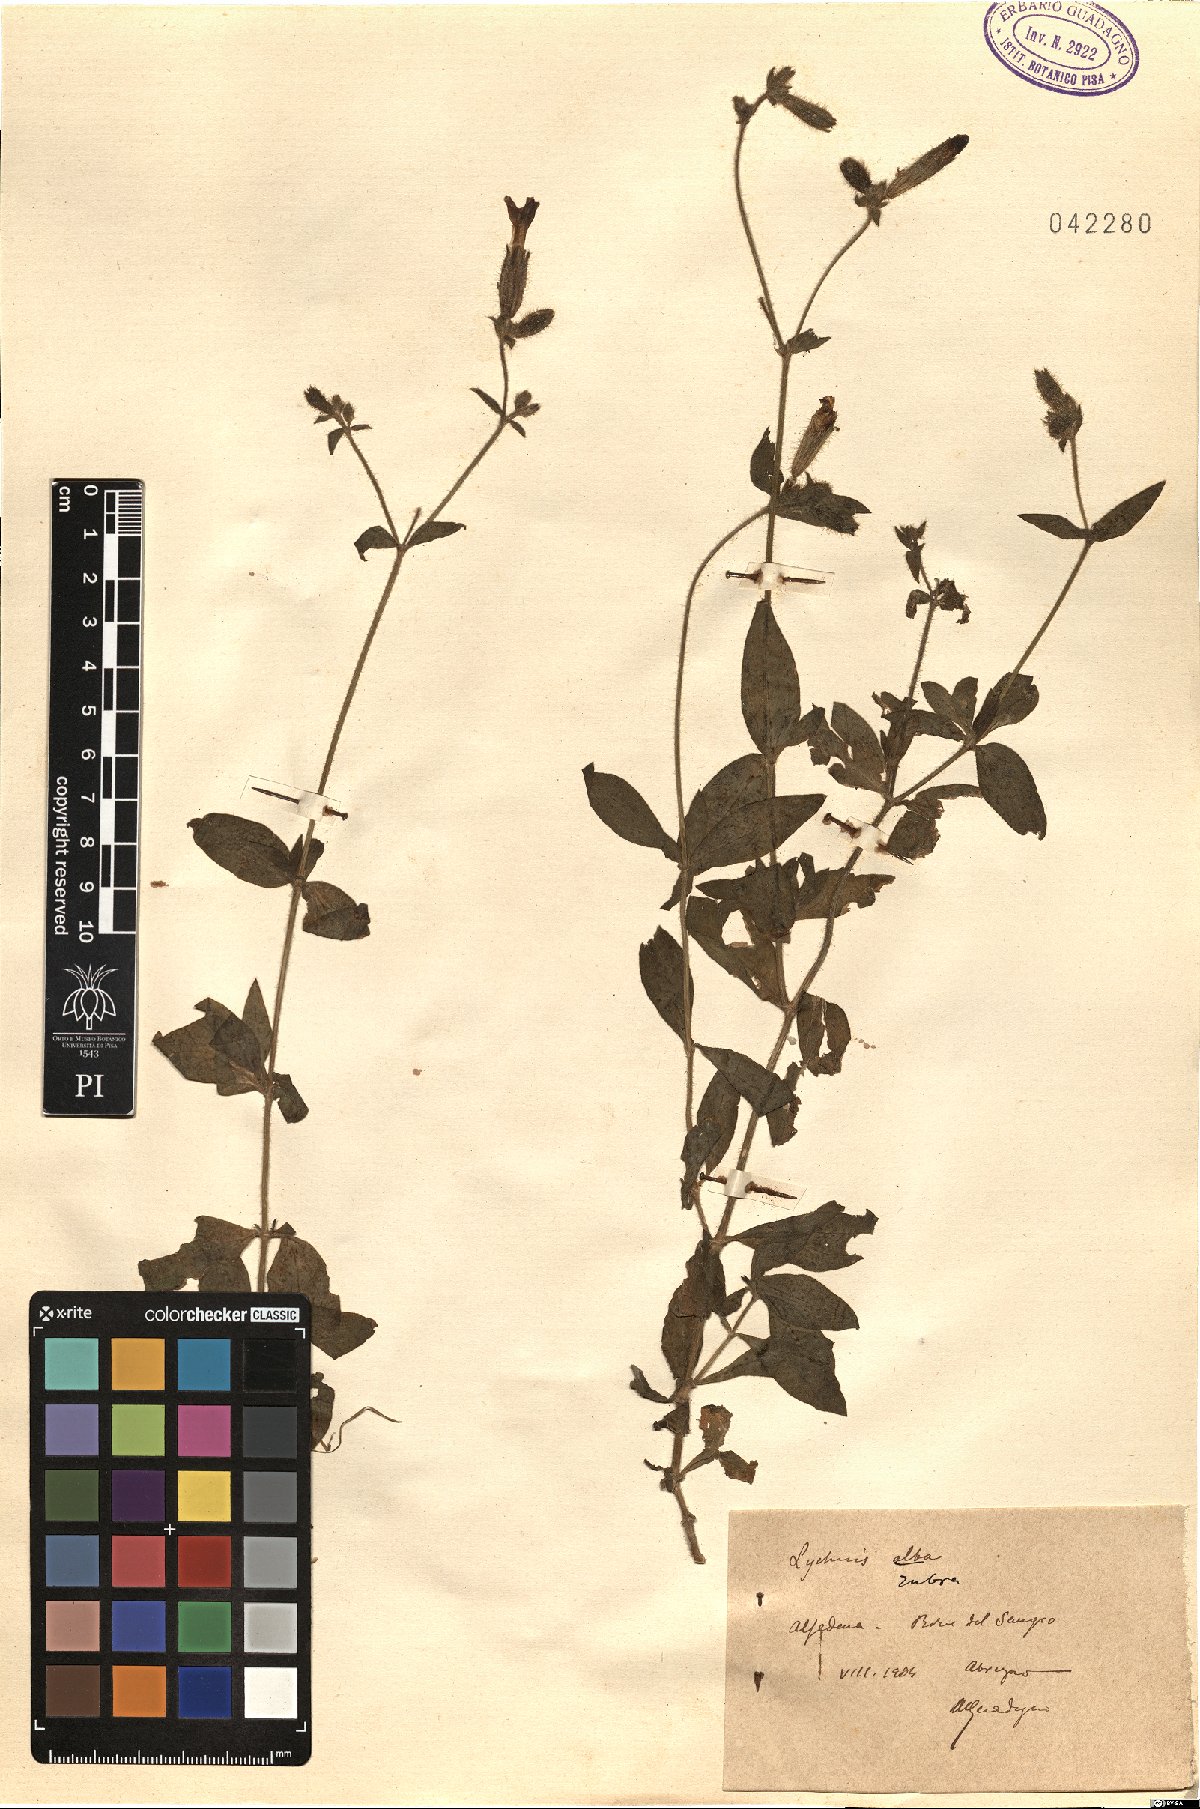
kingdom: Plantae
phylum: Tracheophyta
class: Magnoliopsida
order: Caryophyllales
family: Caryophyllaceae
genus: Silene
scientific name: Silene dioica
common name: Red campion
